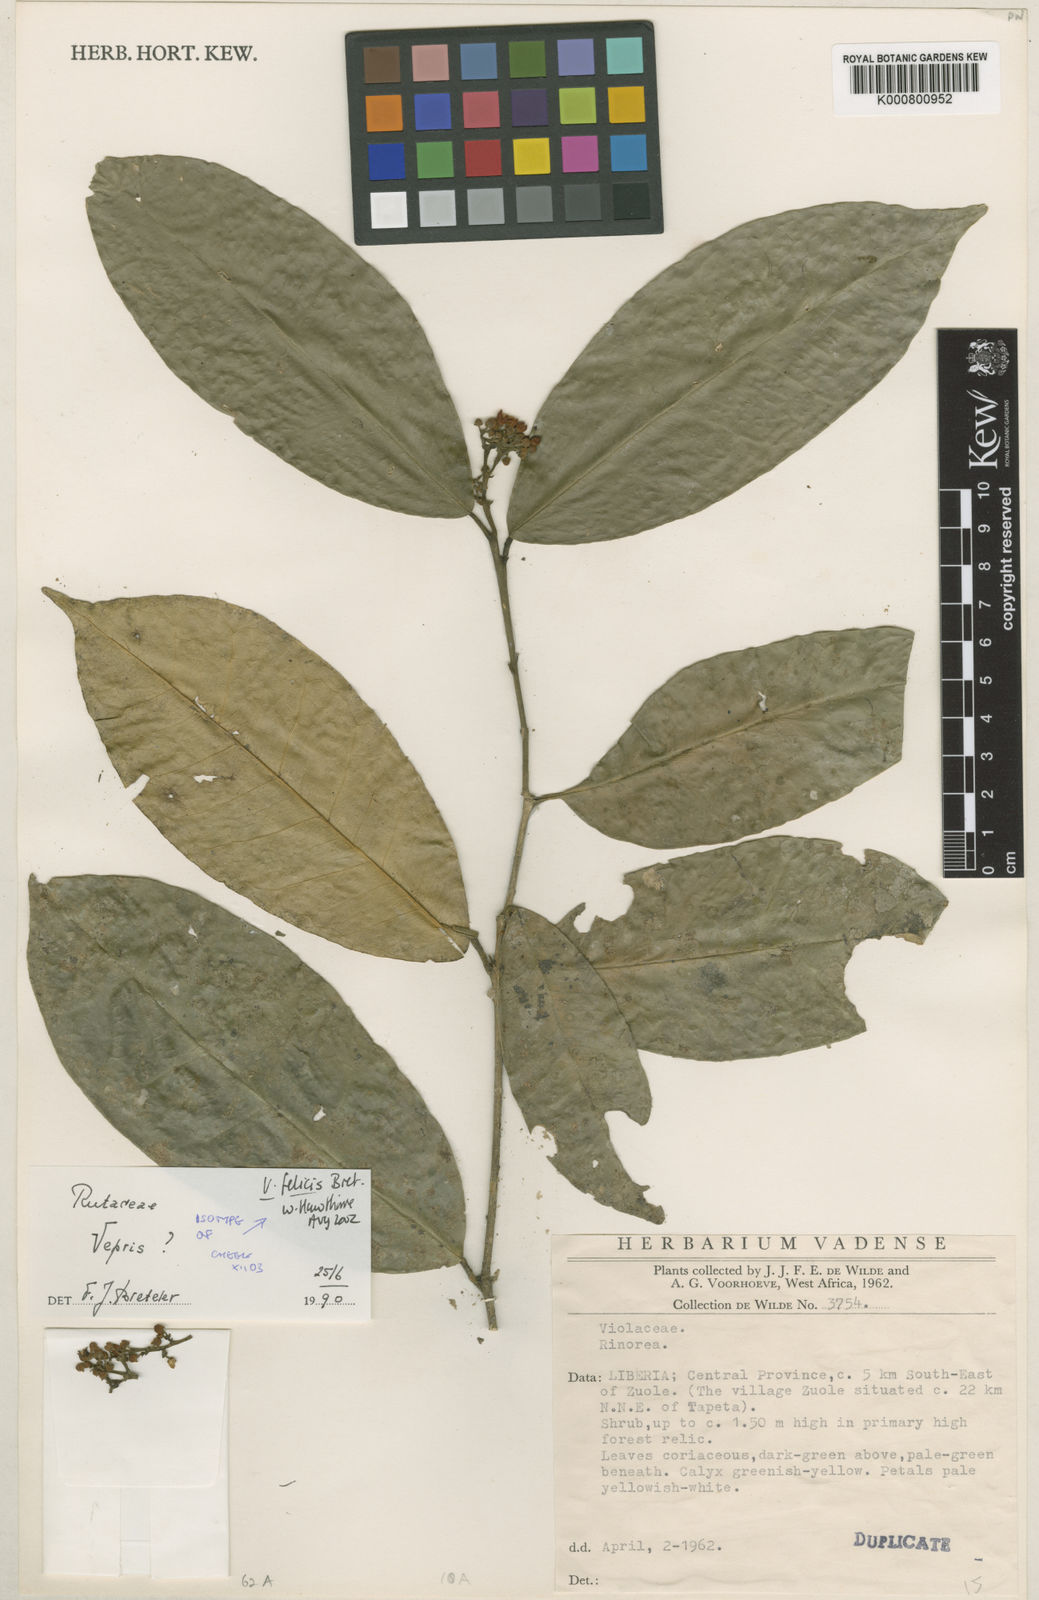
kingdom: Plantae
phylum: Tracheophyta
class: Magnoliopsida
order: Sapindales
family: Rutaceae
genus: Vepris
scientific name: Vepris felicis
